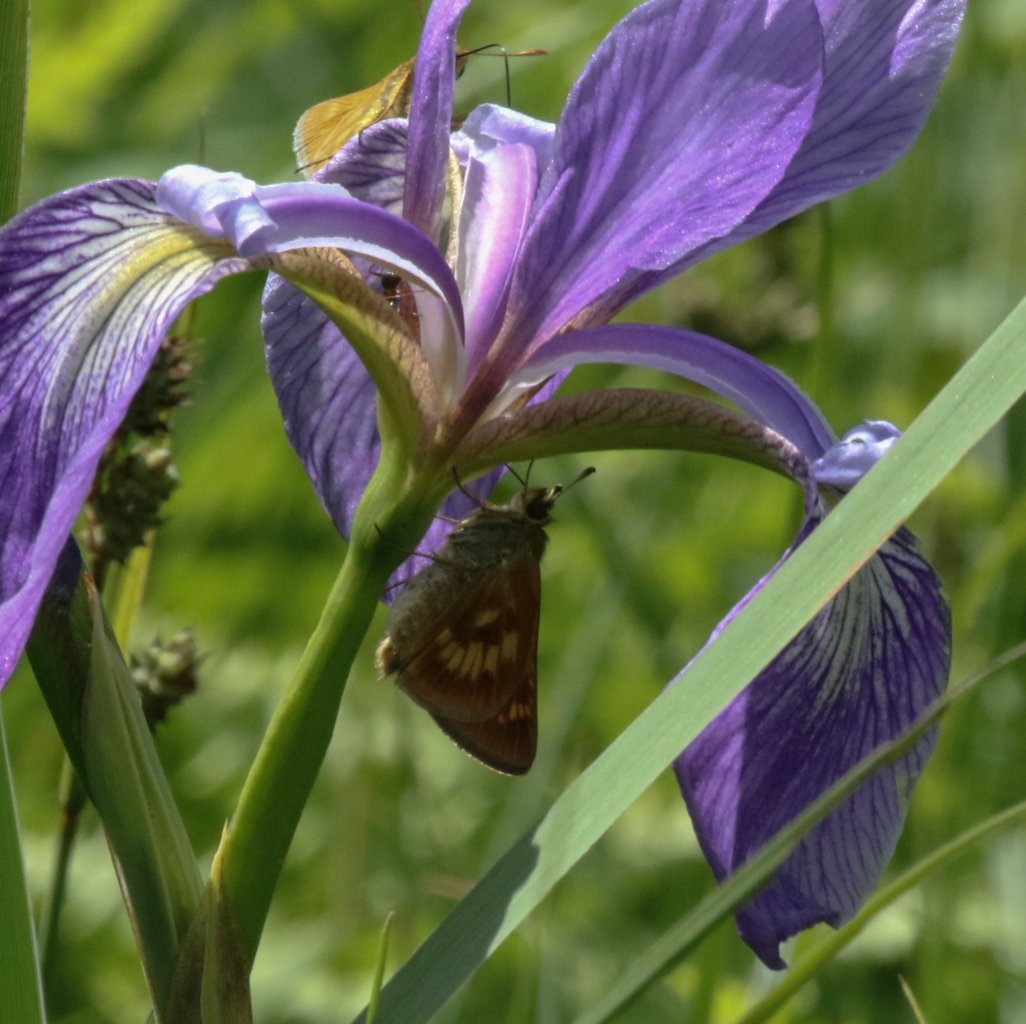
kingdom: Animalia
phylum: Arthropoda
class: Insecta
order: Lepidoptera
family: Hesperiidae
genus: Polites
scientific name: Polites
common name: Long Dash Skipper
